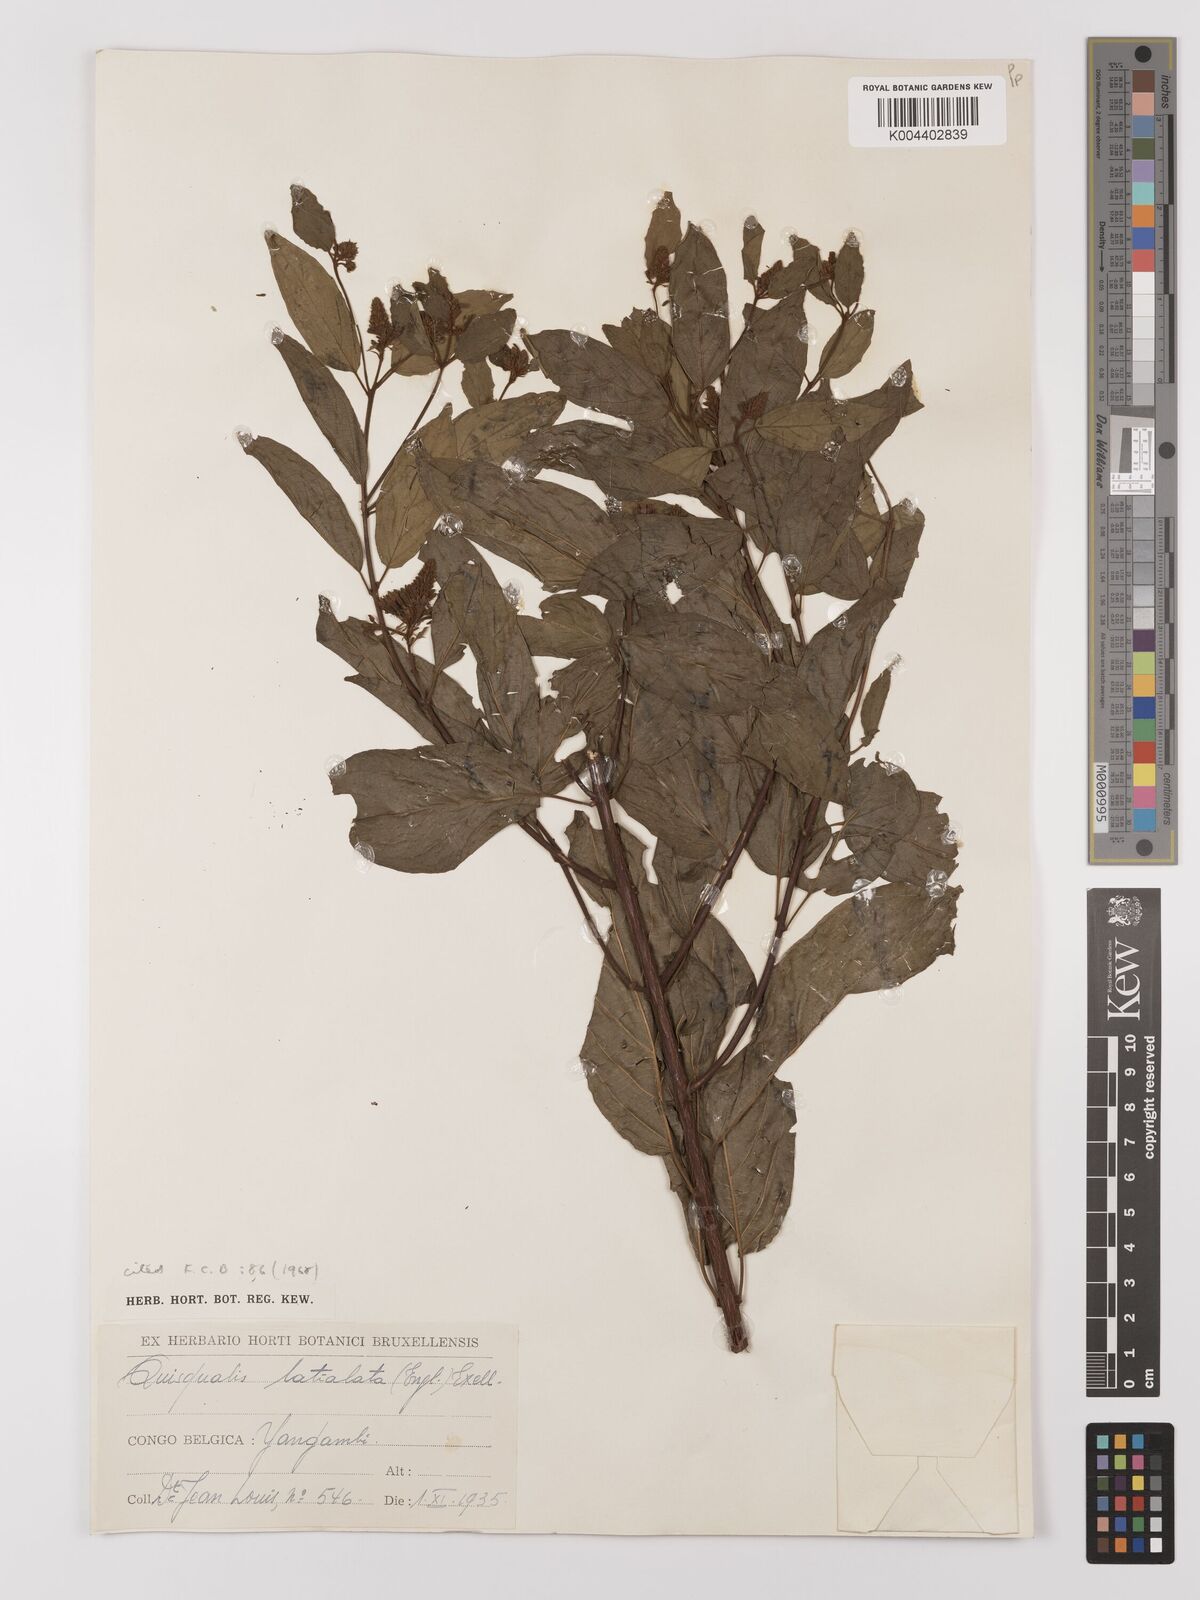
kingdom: Plantae
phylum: Tracheophyta
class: Magnoliopsida
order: Myrtales
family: Combretaceae
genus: Combretum
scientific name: Combretum latialatum
